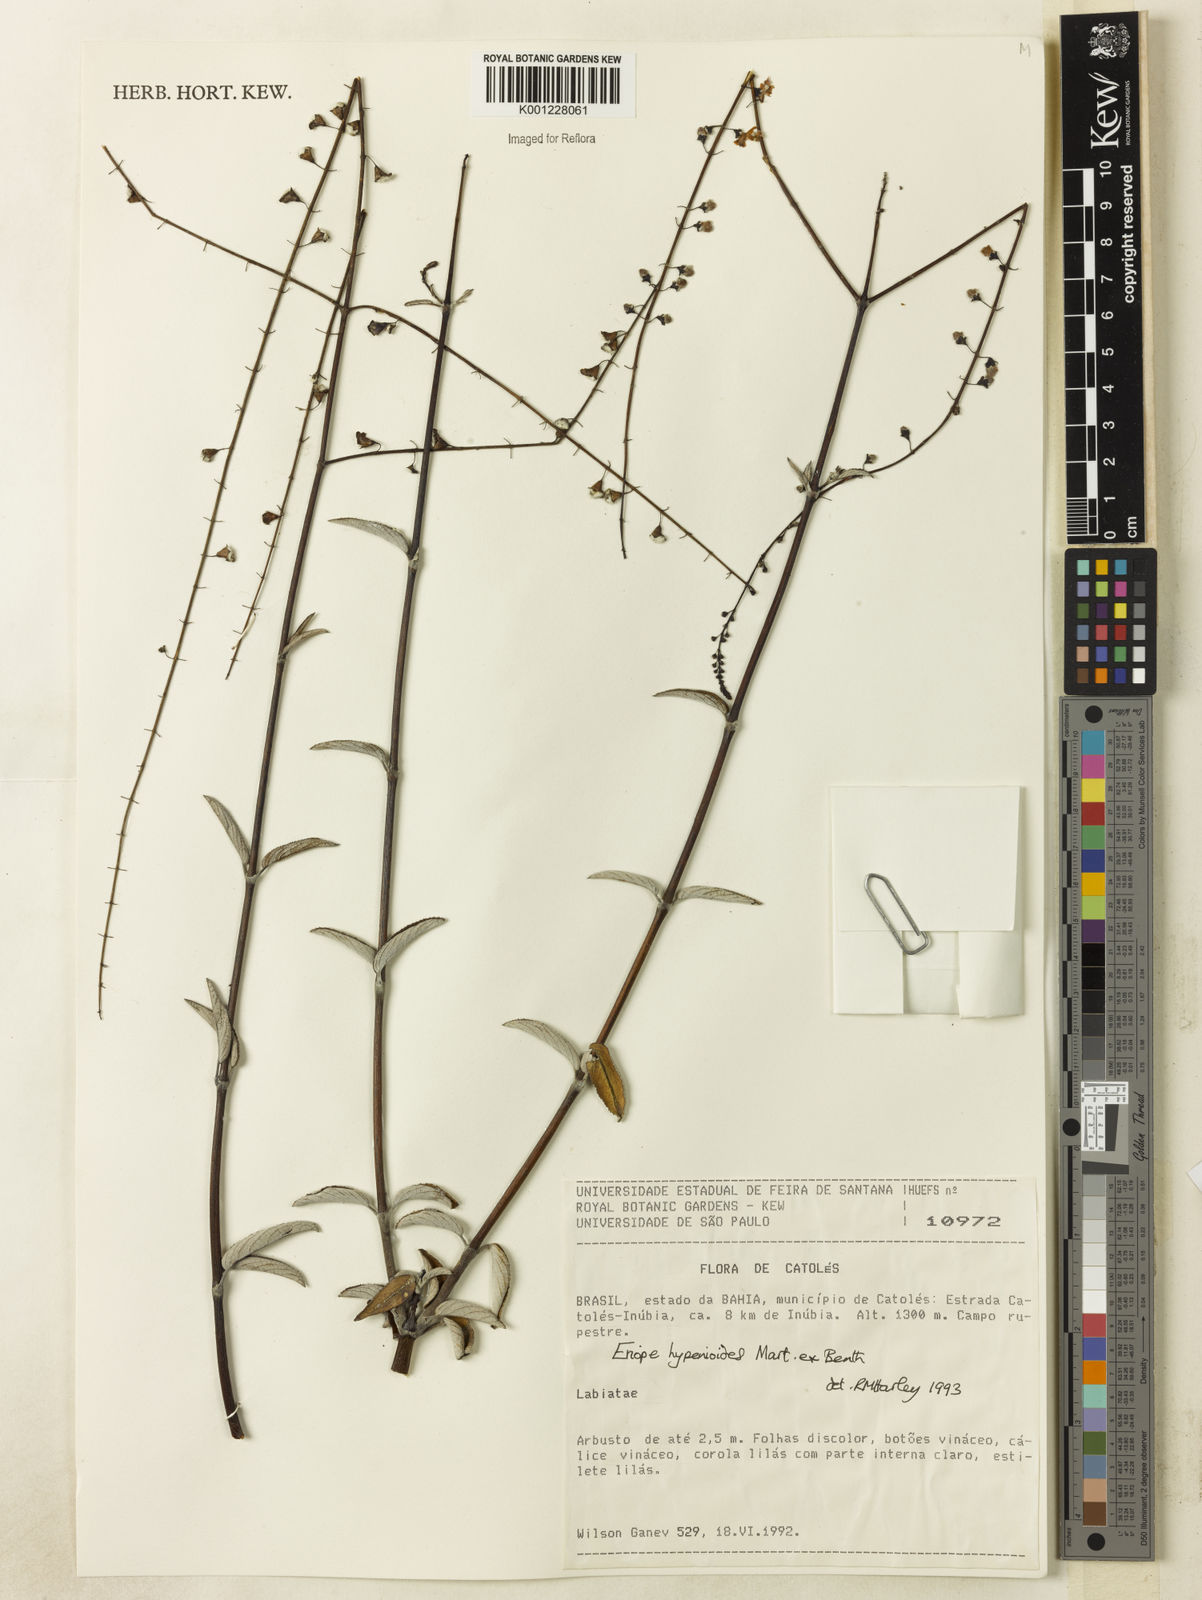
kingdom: Plantae
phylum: Tracheophyta
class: Magnoliopsida
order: Lamiales
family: Lamiaceae
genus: Eriope
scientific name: Eriope hypenioides
